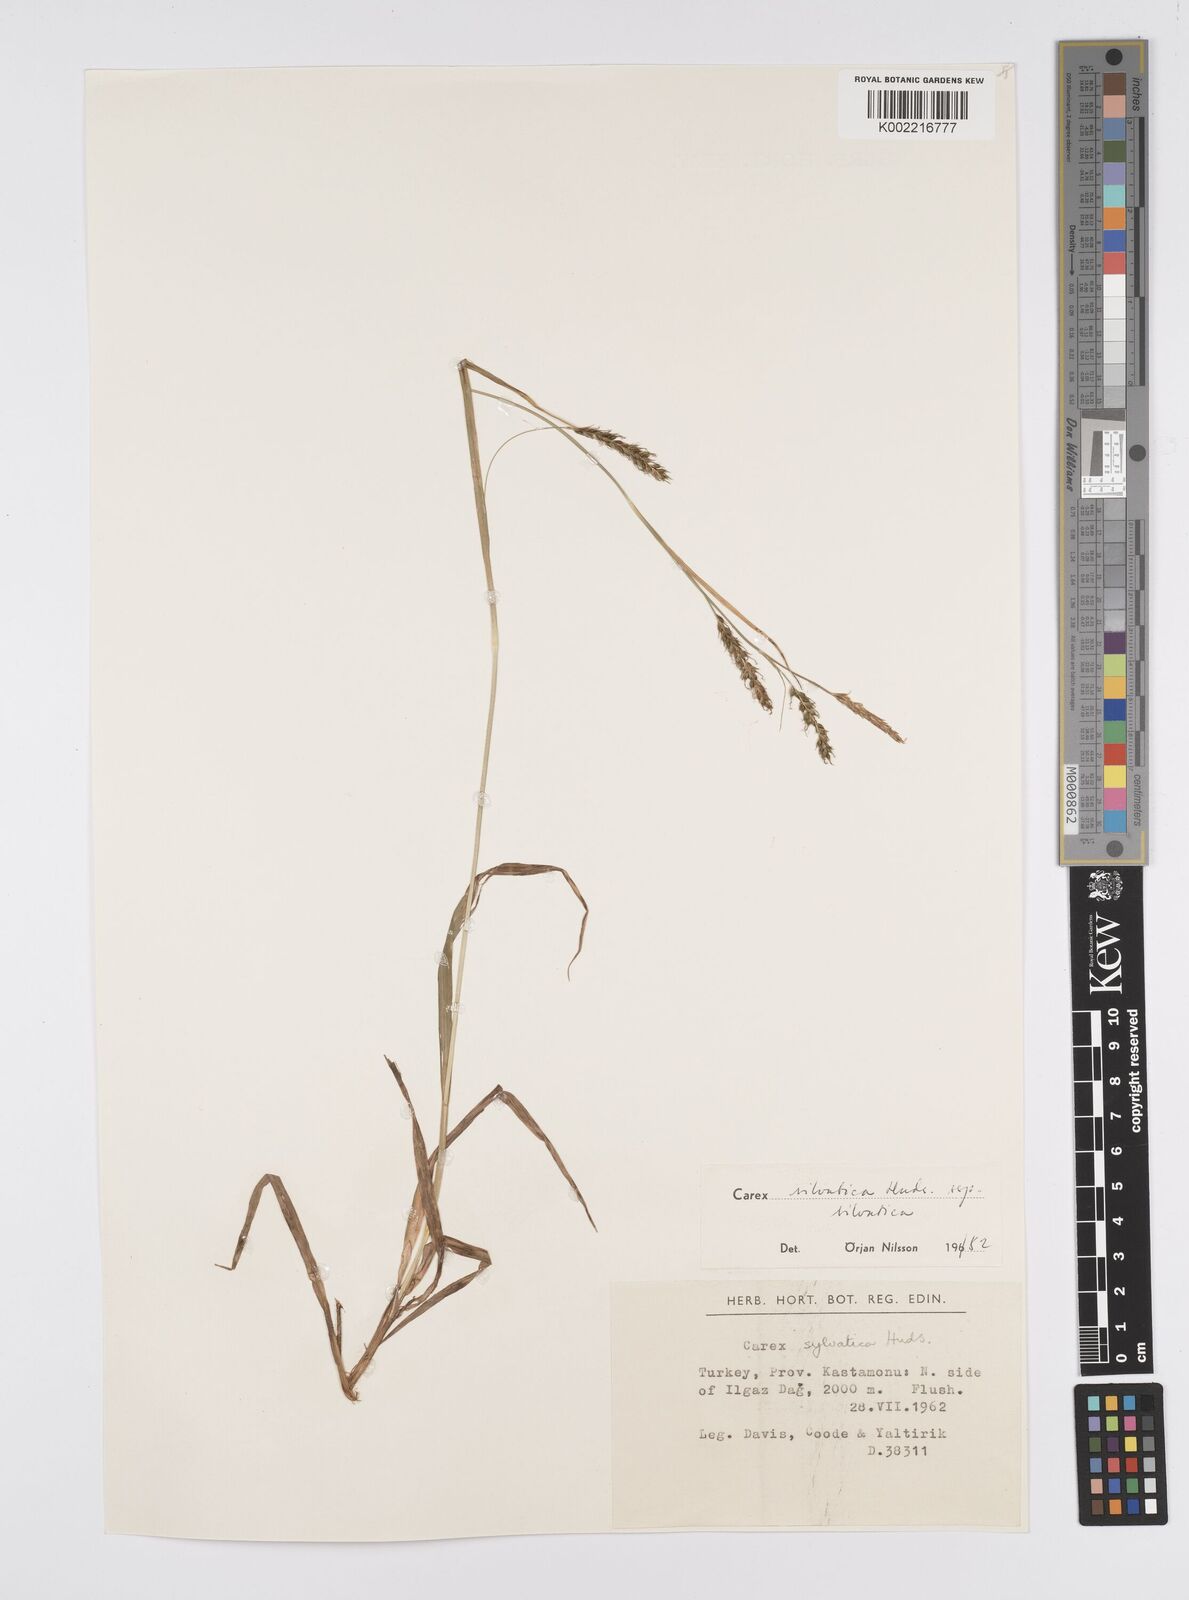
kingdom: Plantae
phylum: Tracheophyta
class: Liliopsida
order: Poales
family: Cyperaceae
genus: Carex
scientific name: Carex sylvatica
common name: Wood-sedge
